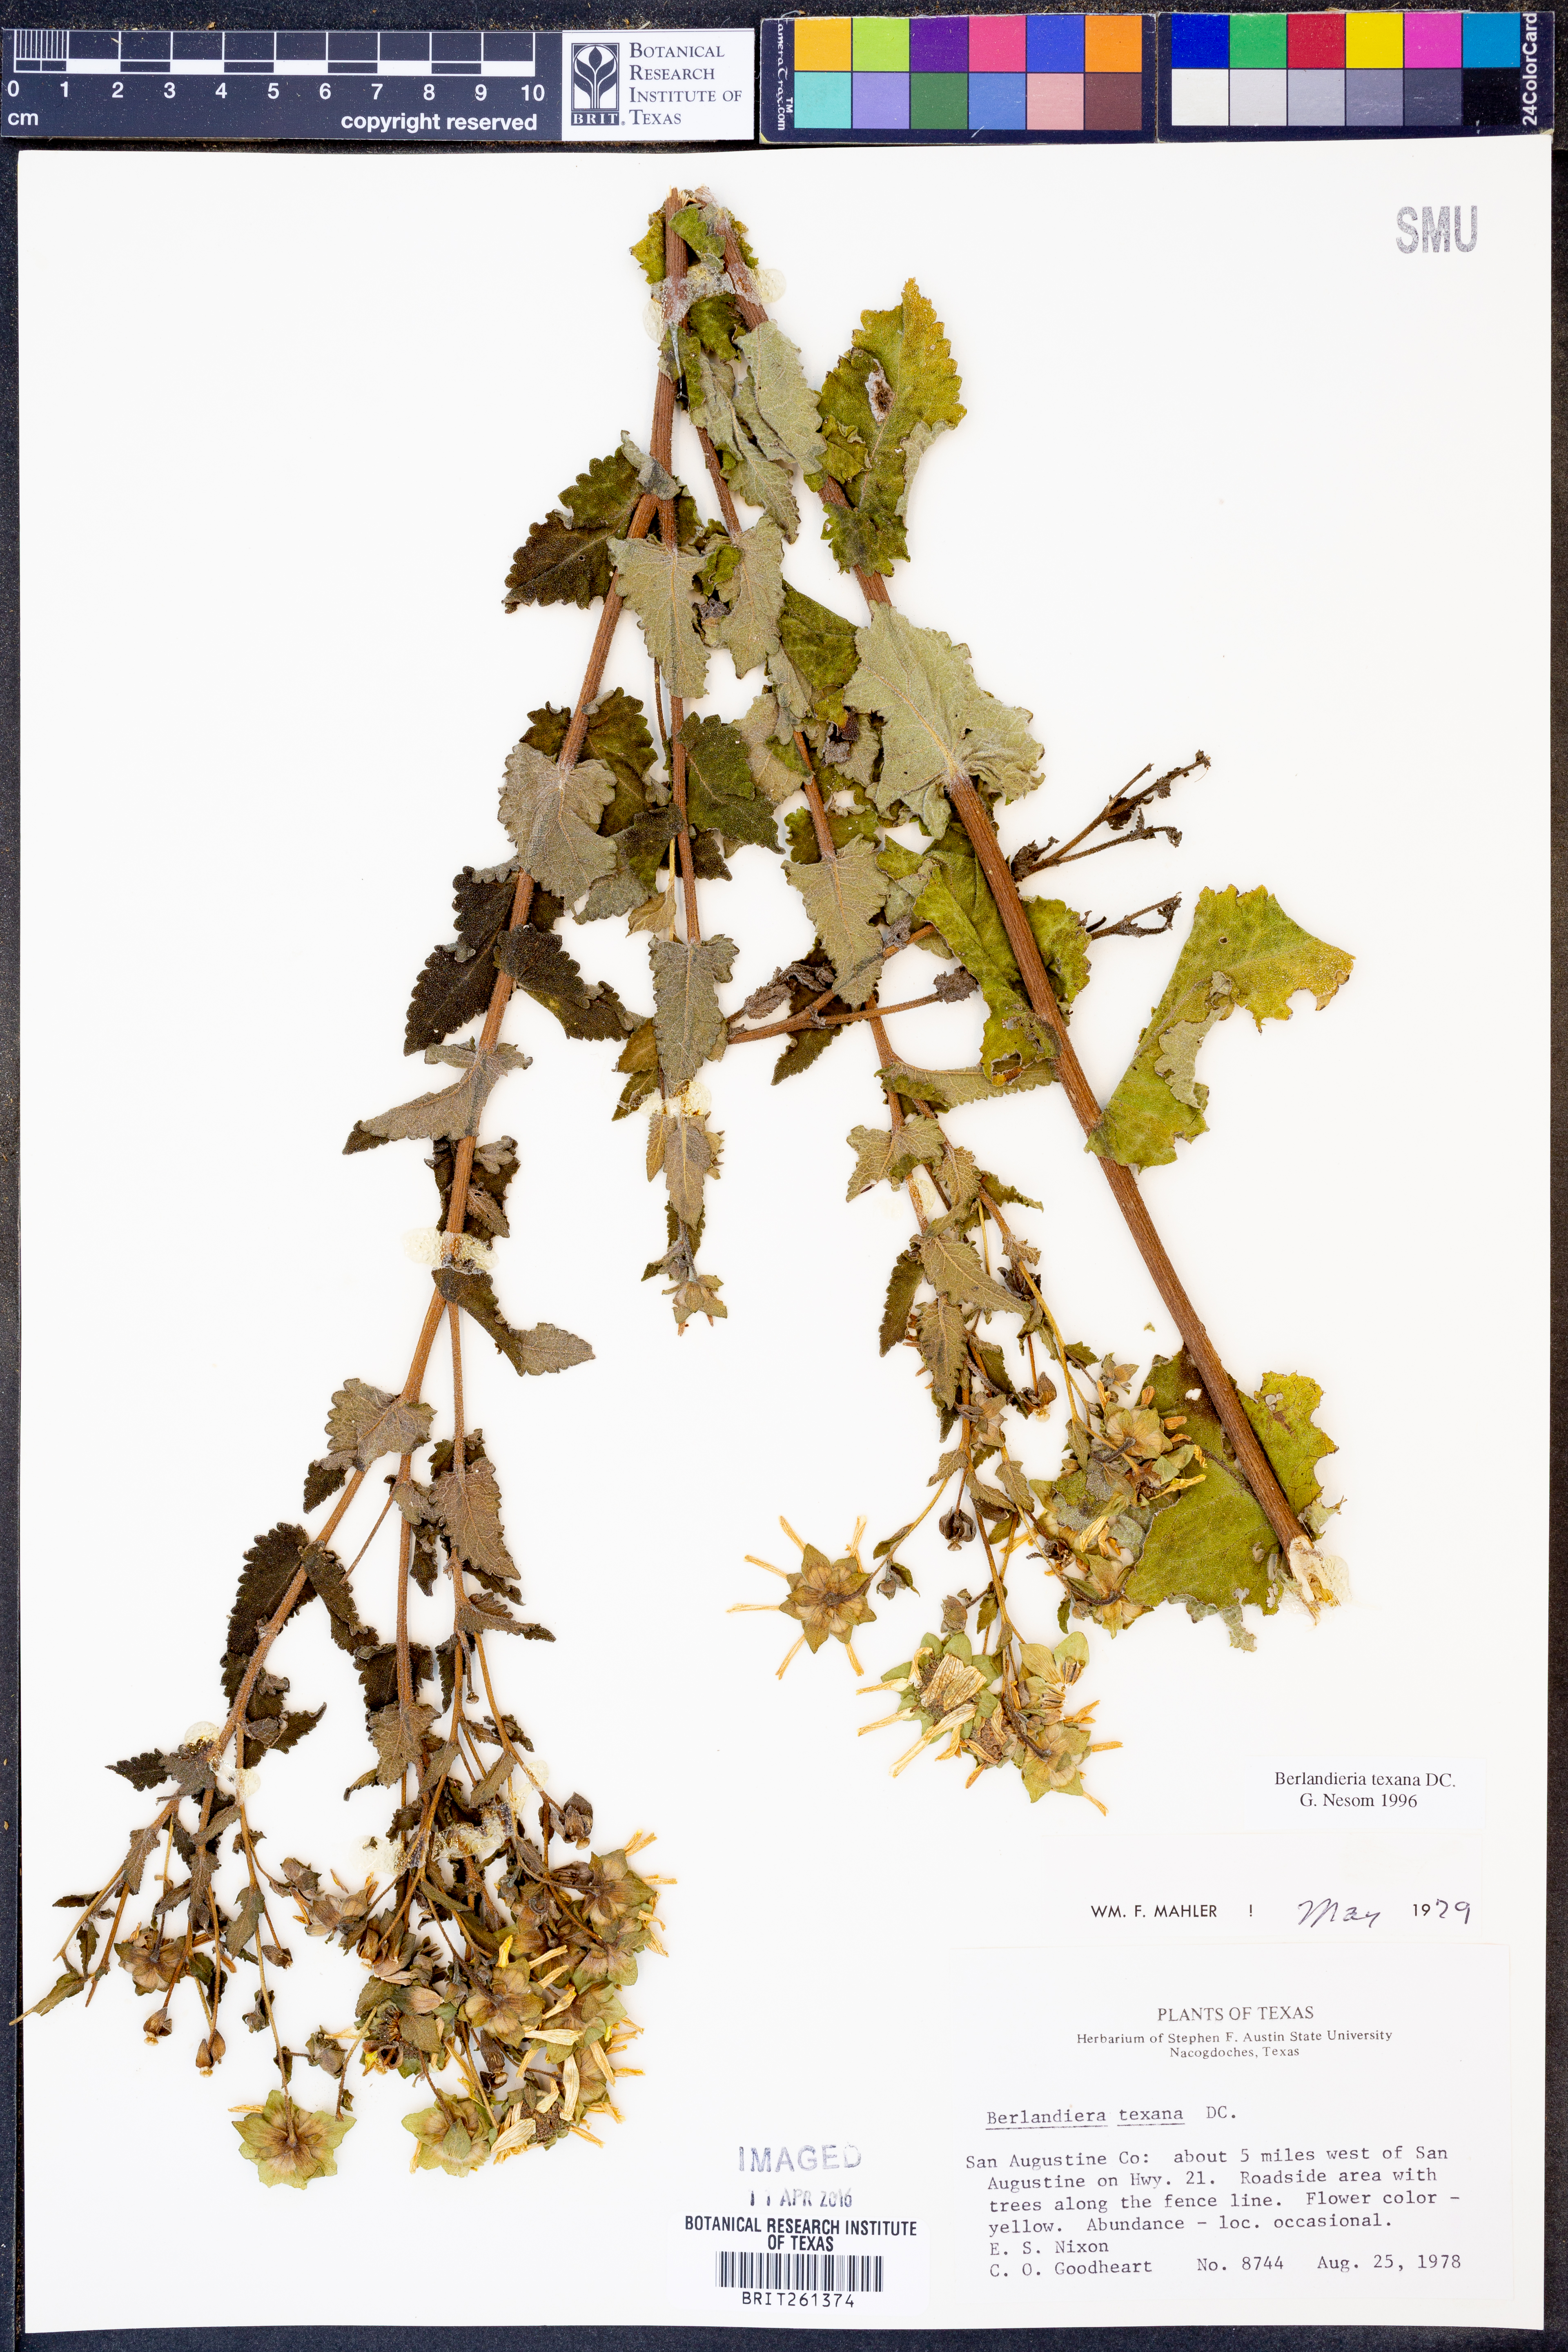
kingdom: Plantae
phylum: Tracheophyta
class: Magnoliopsida
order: Asterales
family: Asteraceae
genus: Berlandiera
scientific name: Berlandiera texana
